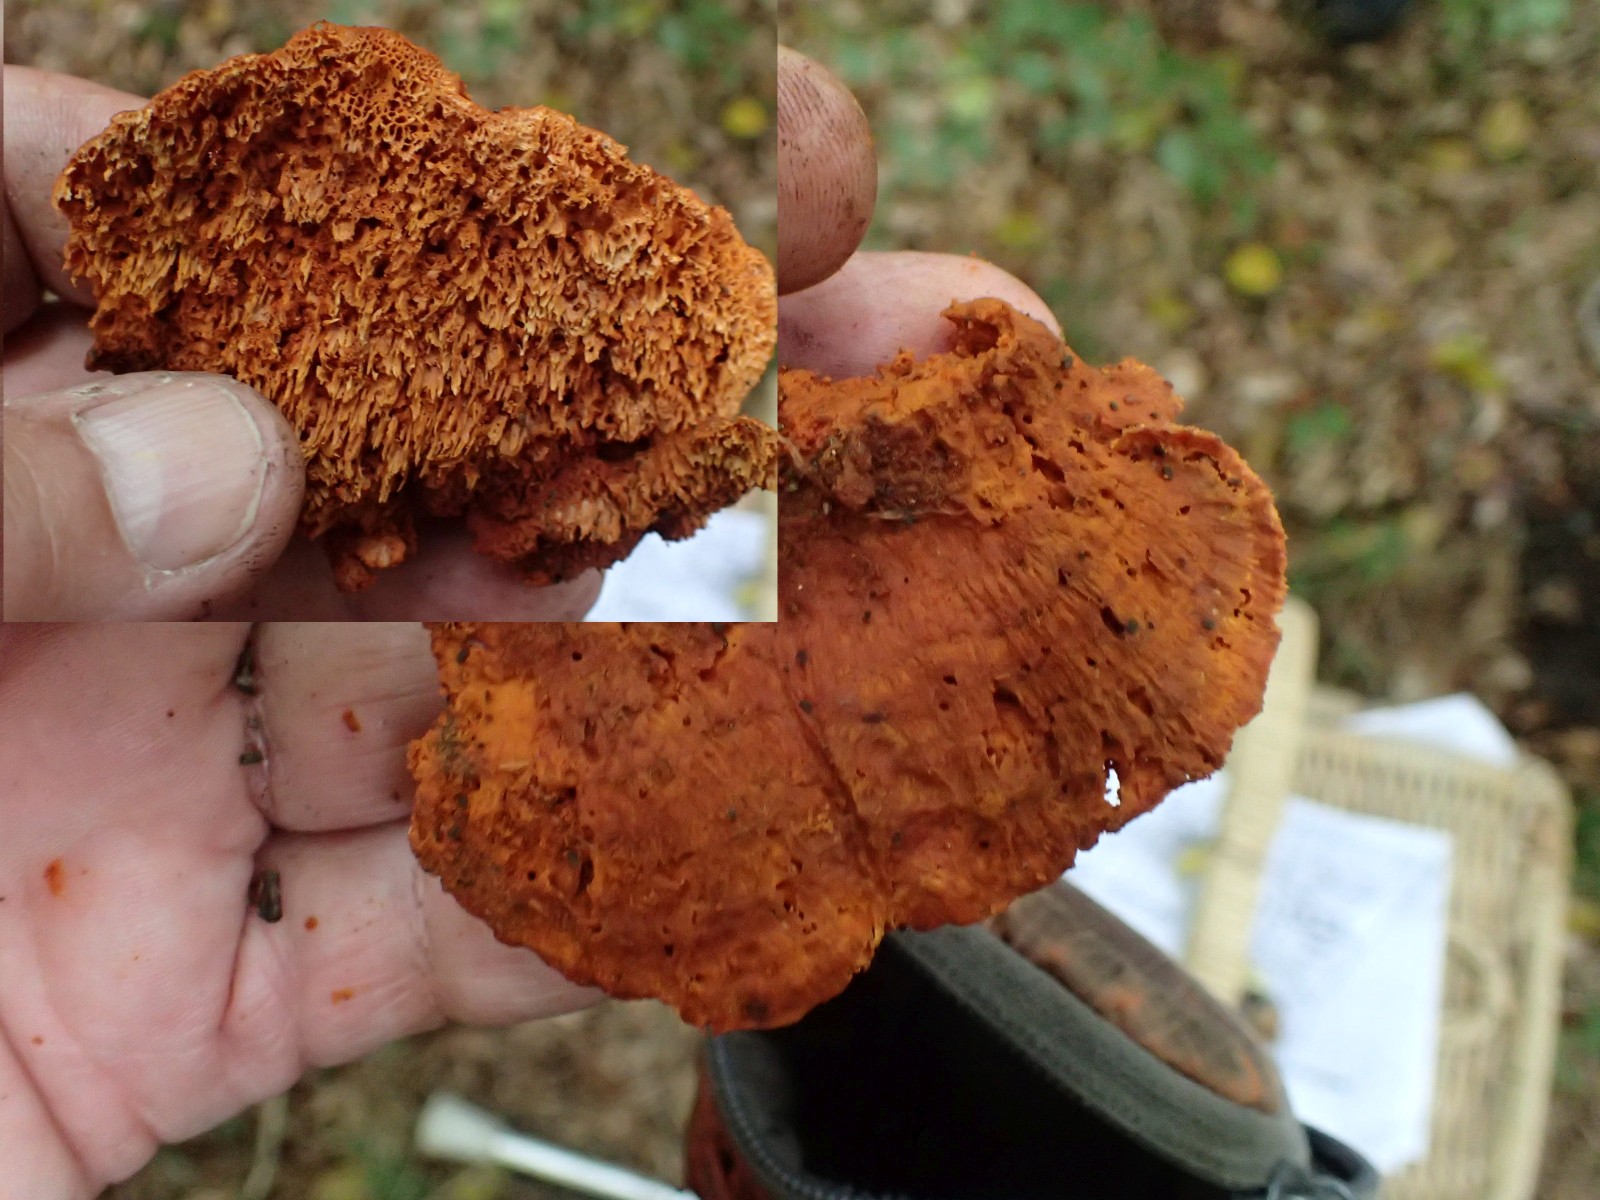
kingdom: Fungi
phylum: Basidiomycota
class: Agaricomycetes
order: Polyporales
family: Pycnoporellaceae
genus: Pycnoporellus
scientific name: Pycnoporellus fulgens
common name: flammeporesvamp
